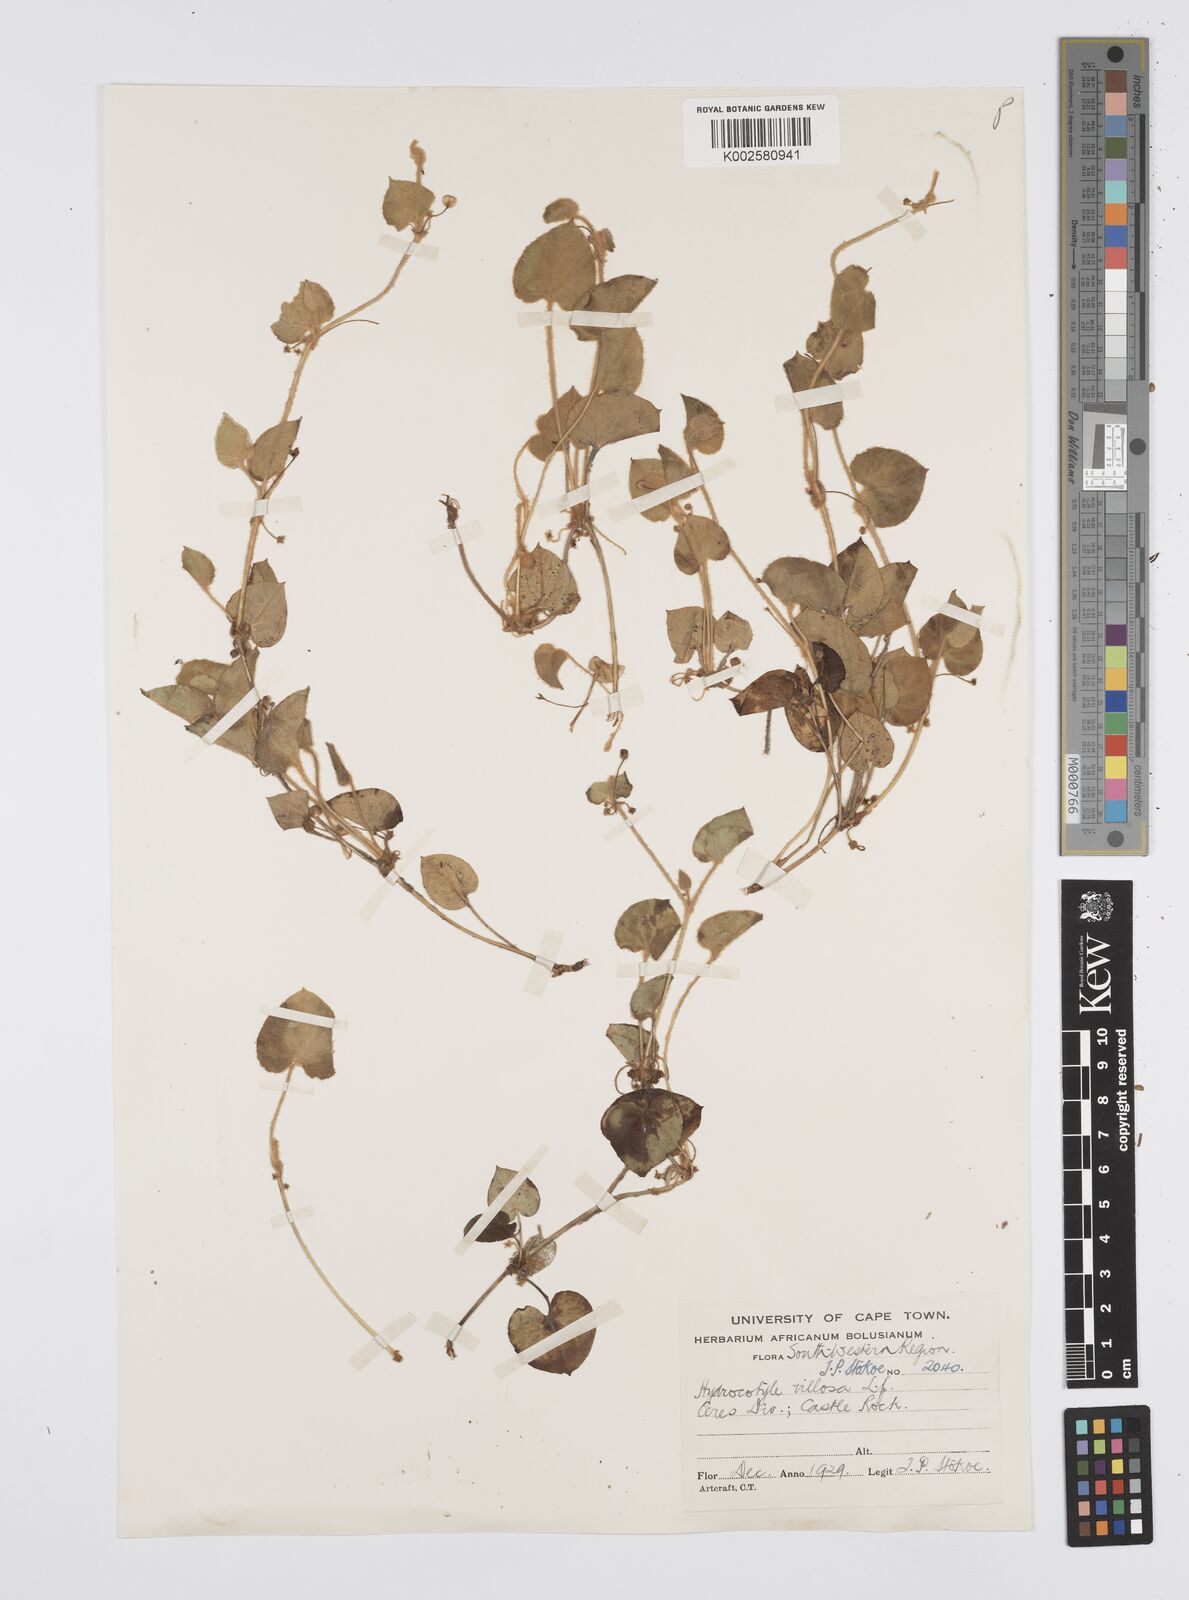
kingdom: Plantae
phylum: Tracheophyta
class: Magnoliopsida
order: Apiales
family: Apiaceae
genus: Centella
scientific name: Centella villosa
